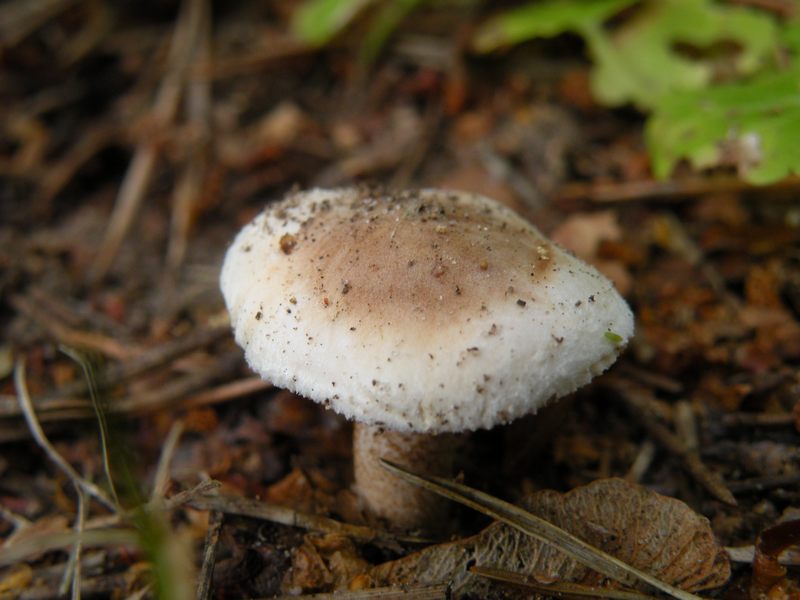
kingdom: Fungi
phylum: Basidiomycota
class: Agaricomycetes
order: Agaricales
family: Hymenogastraceae
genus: Hebeloma
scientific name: Hebeloma mesophaeum
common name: lerbrun tåreblad
